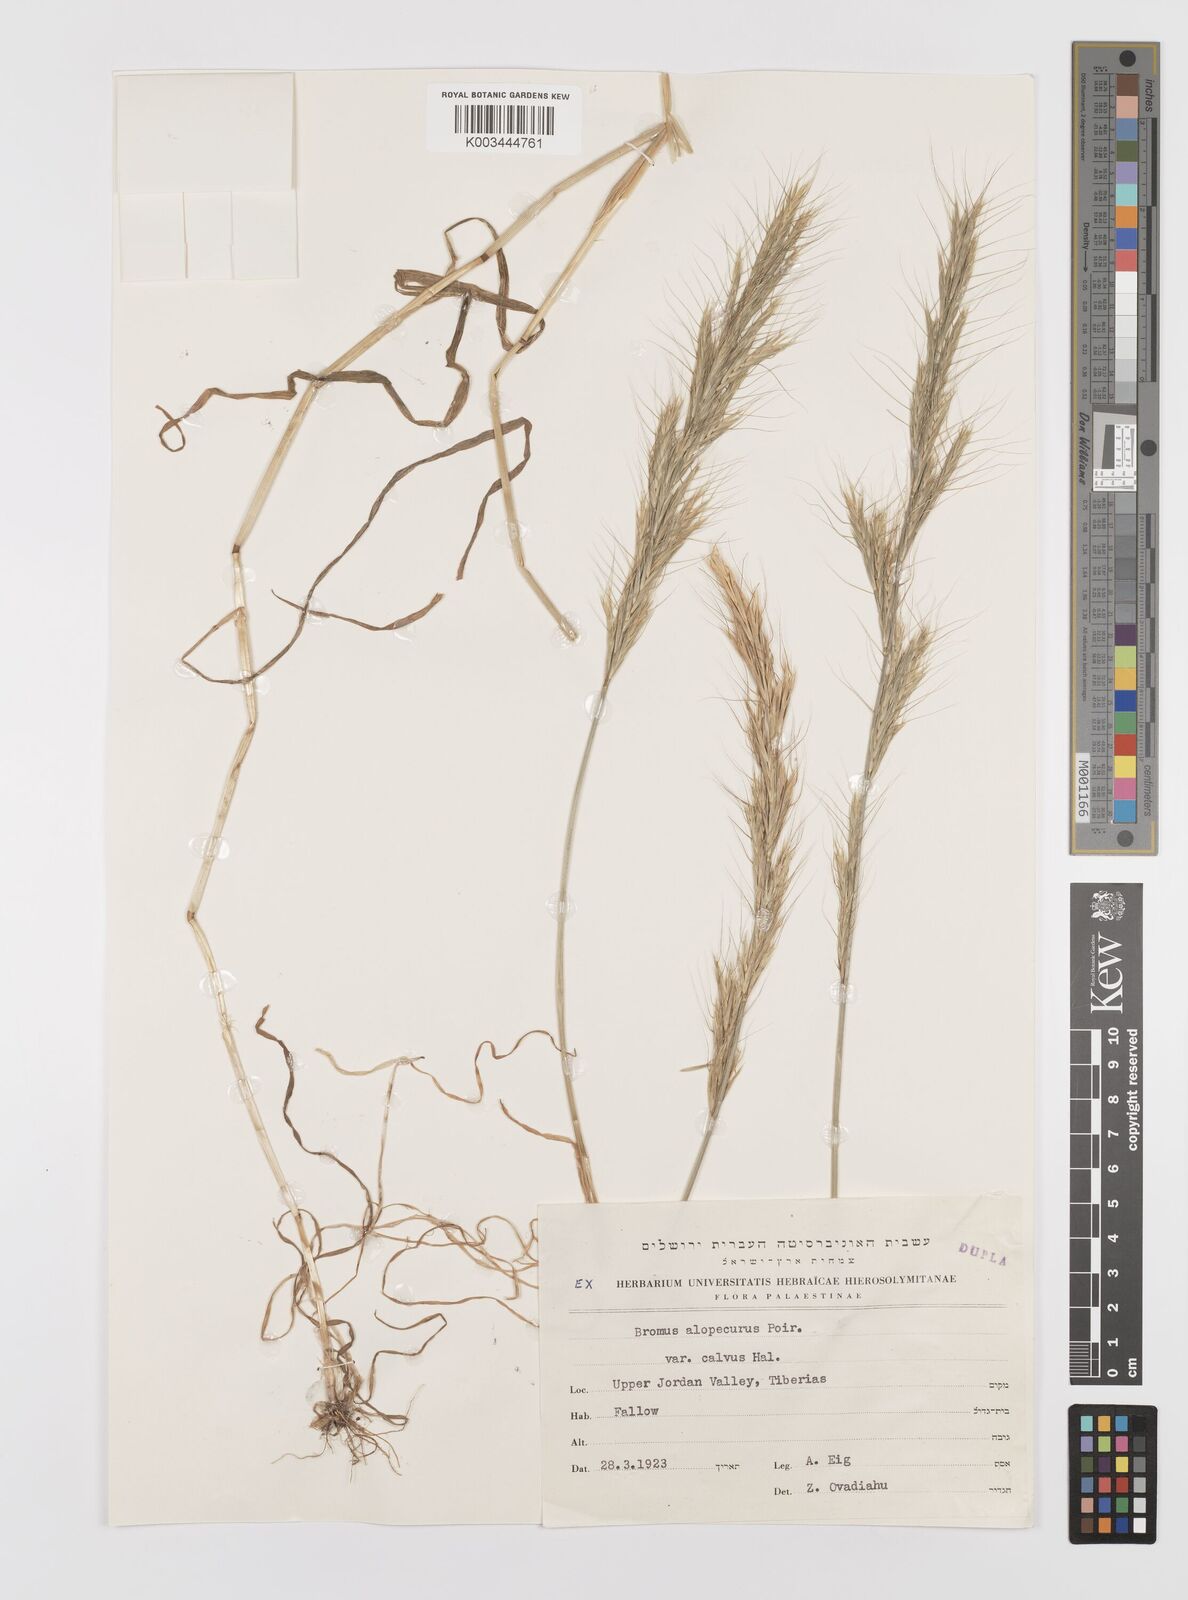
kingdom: Plantae
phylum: Tracheophyta
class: Liliopsida
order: Poales
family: Poaceae
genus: Bromus
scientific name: Bromus alopecuros
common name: Weedy brome
